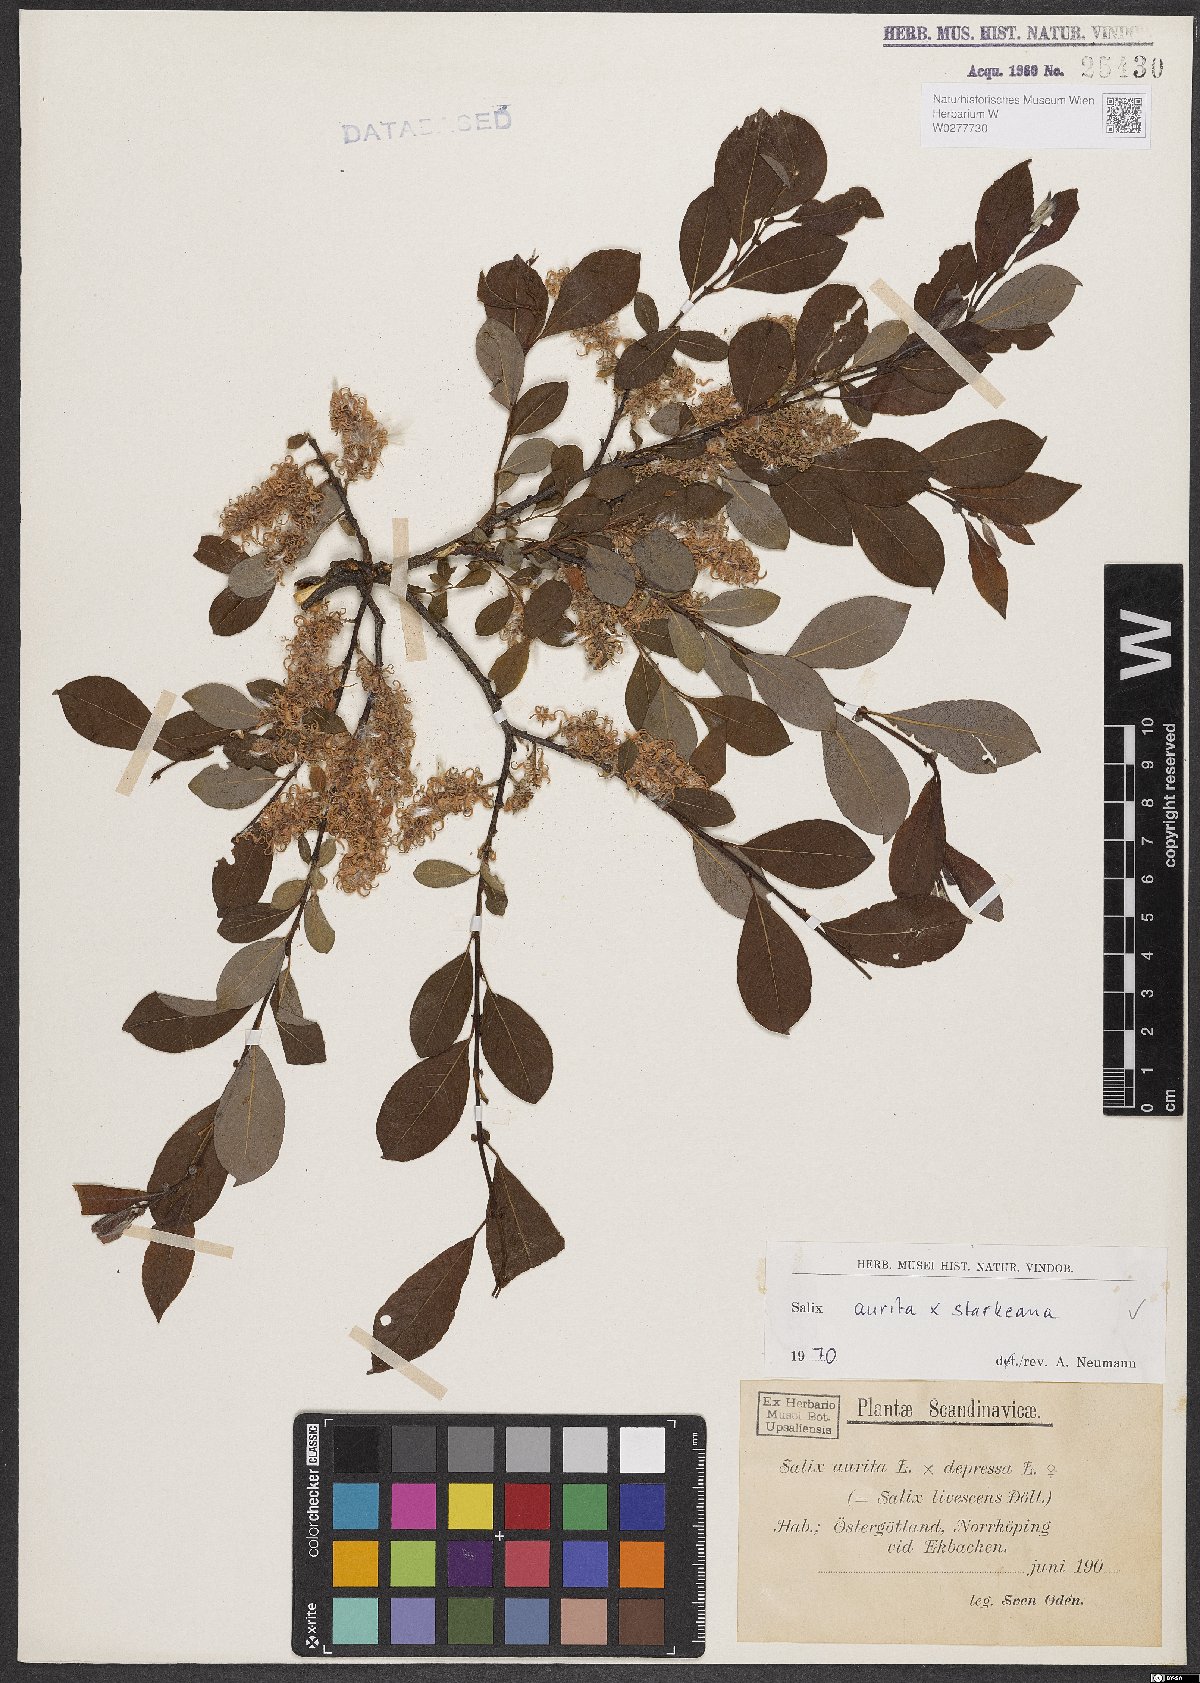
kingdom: Plantae
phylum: Tracheophyta
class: Magnoliopsida
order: Malpighiales
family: Salicaceae
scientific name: Salicaceae
